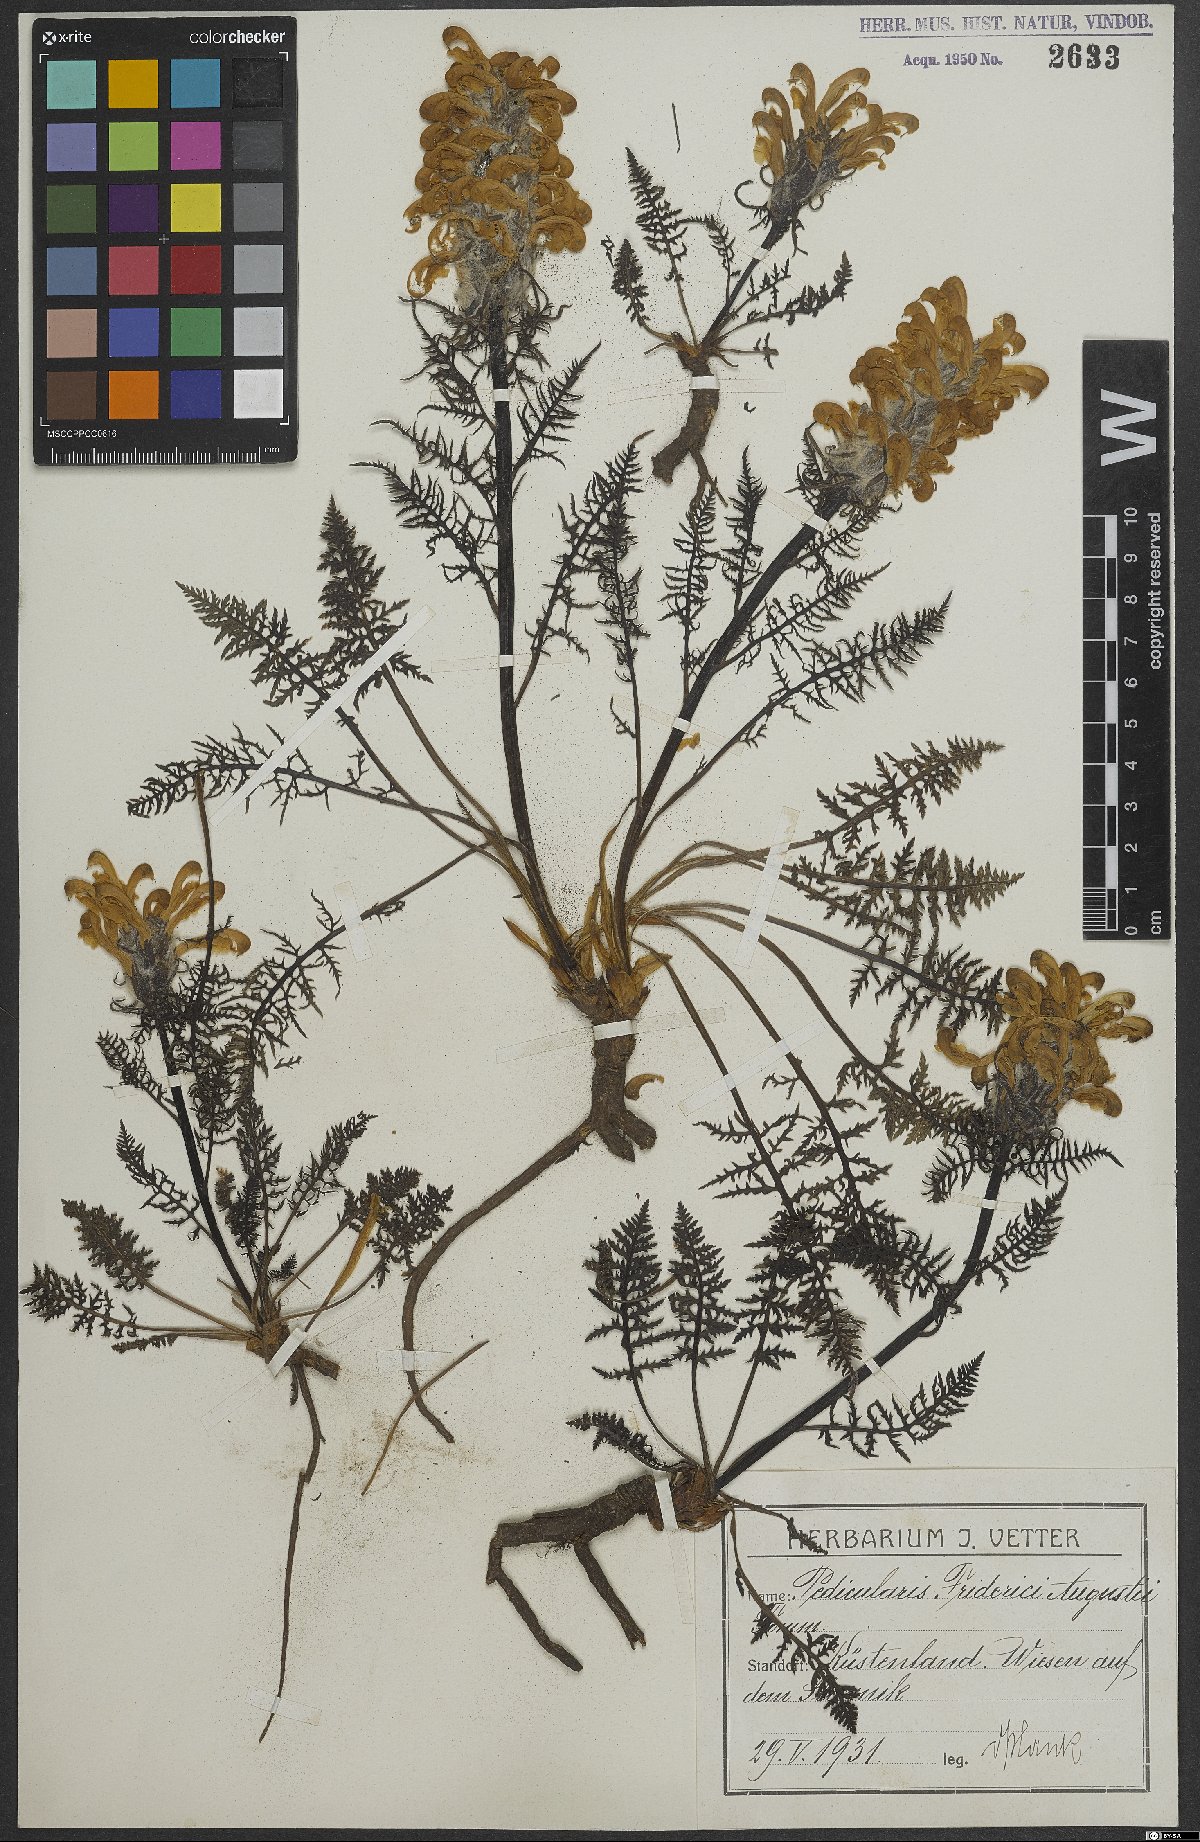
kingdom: Plantae
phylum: Tracheophyta
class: Magnoliopsida
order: Lamiales
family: Orobanchaceae
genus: Pedicularis
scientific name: Pedicularis friderici-augusti
